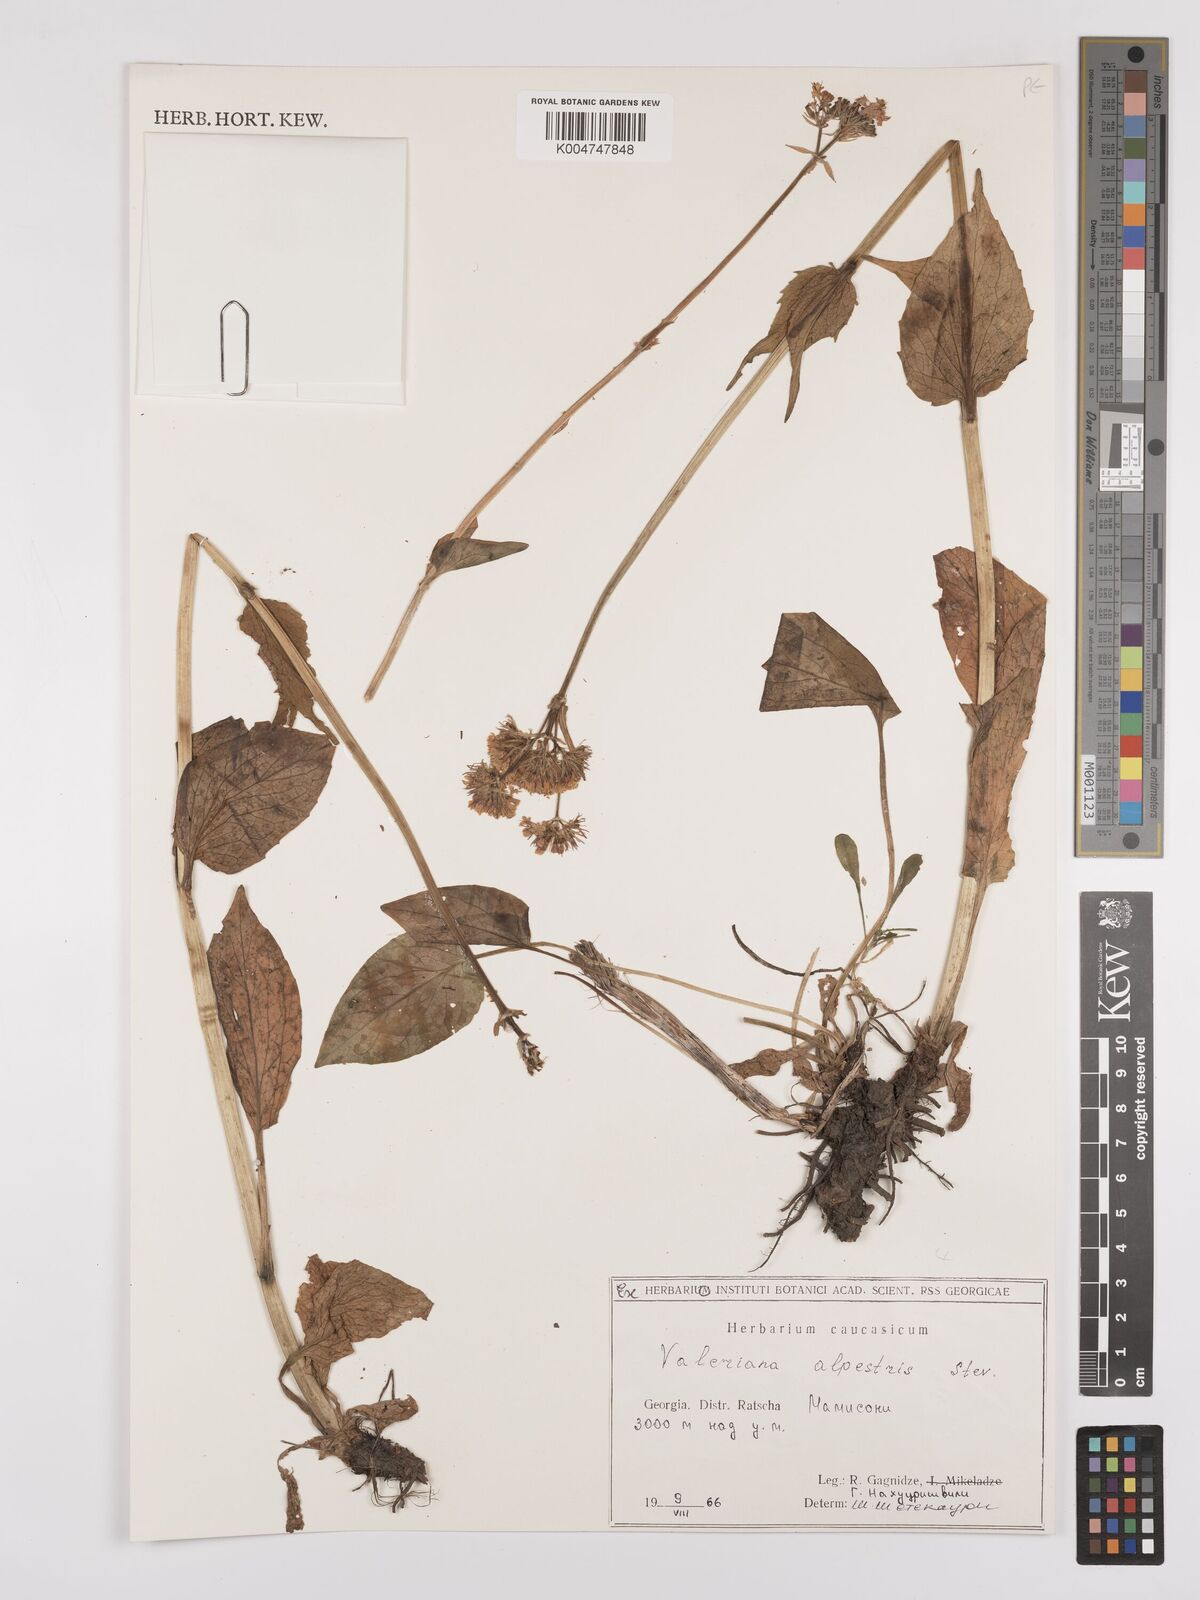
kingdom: Plantae
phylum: Tracheophyta
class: Magnoliopsida
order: Dipsacales
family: Caprifoliaceae
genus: Valeriana
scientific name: Valeriana alpestris
